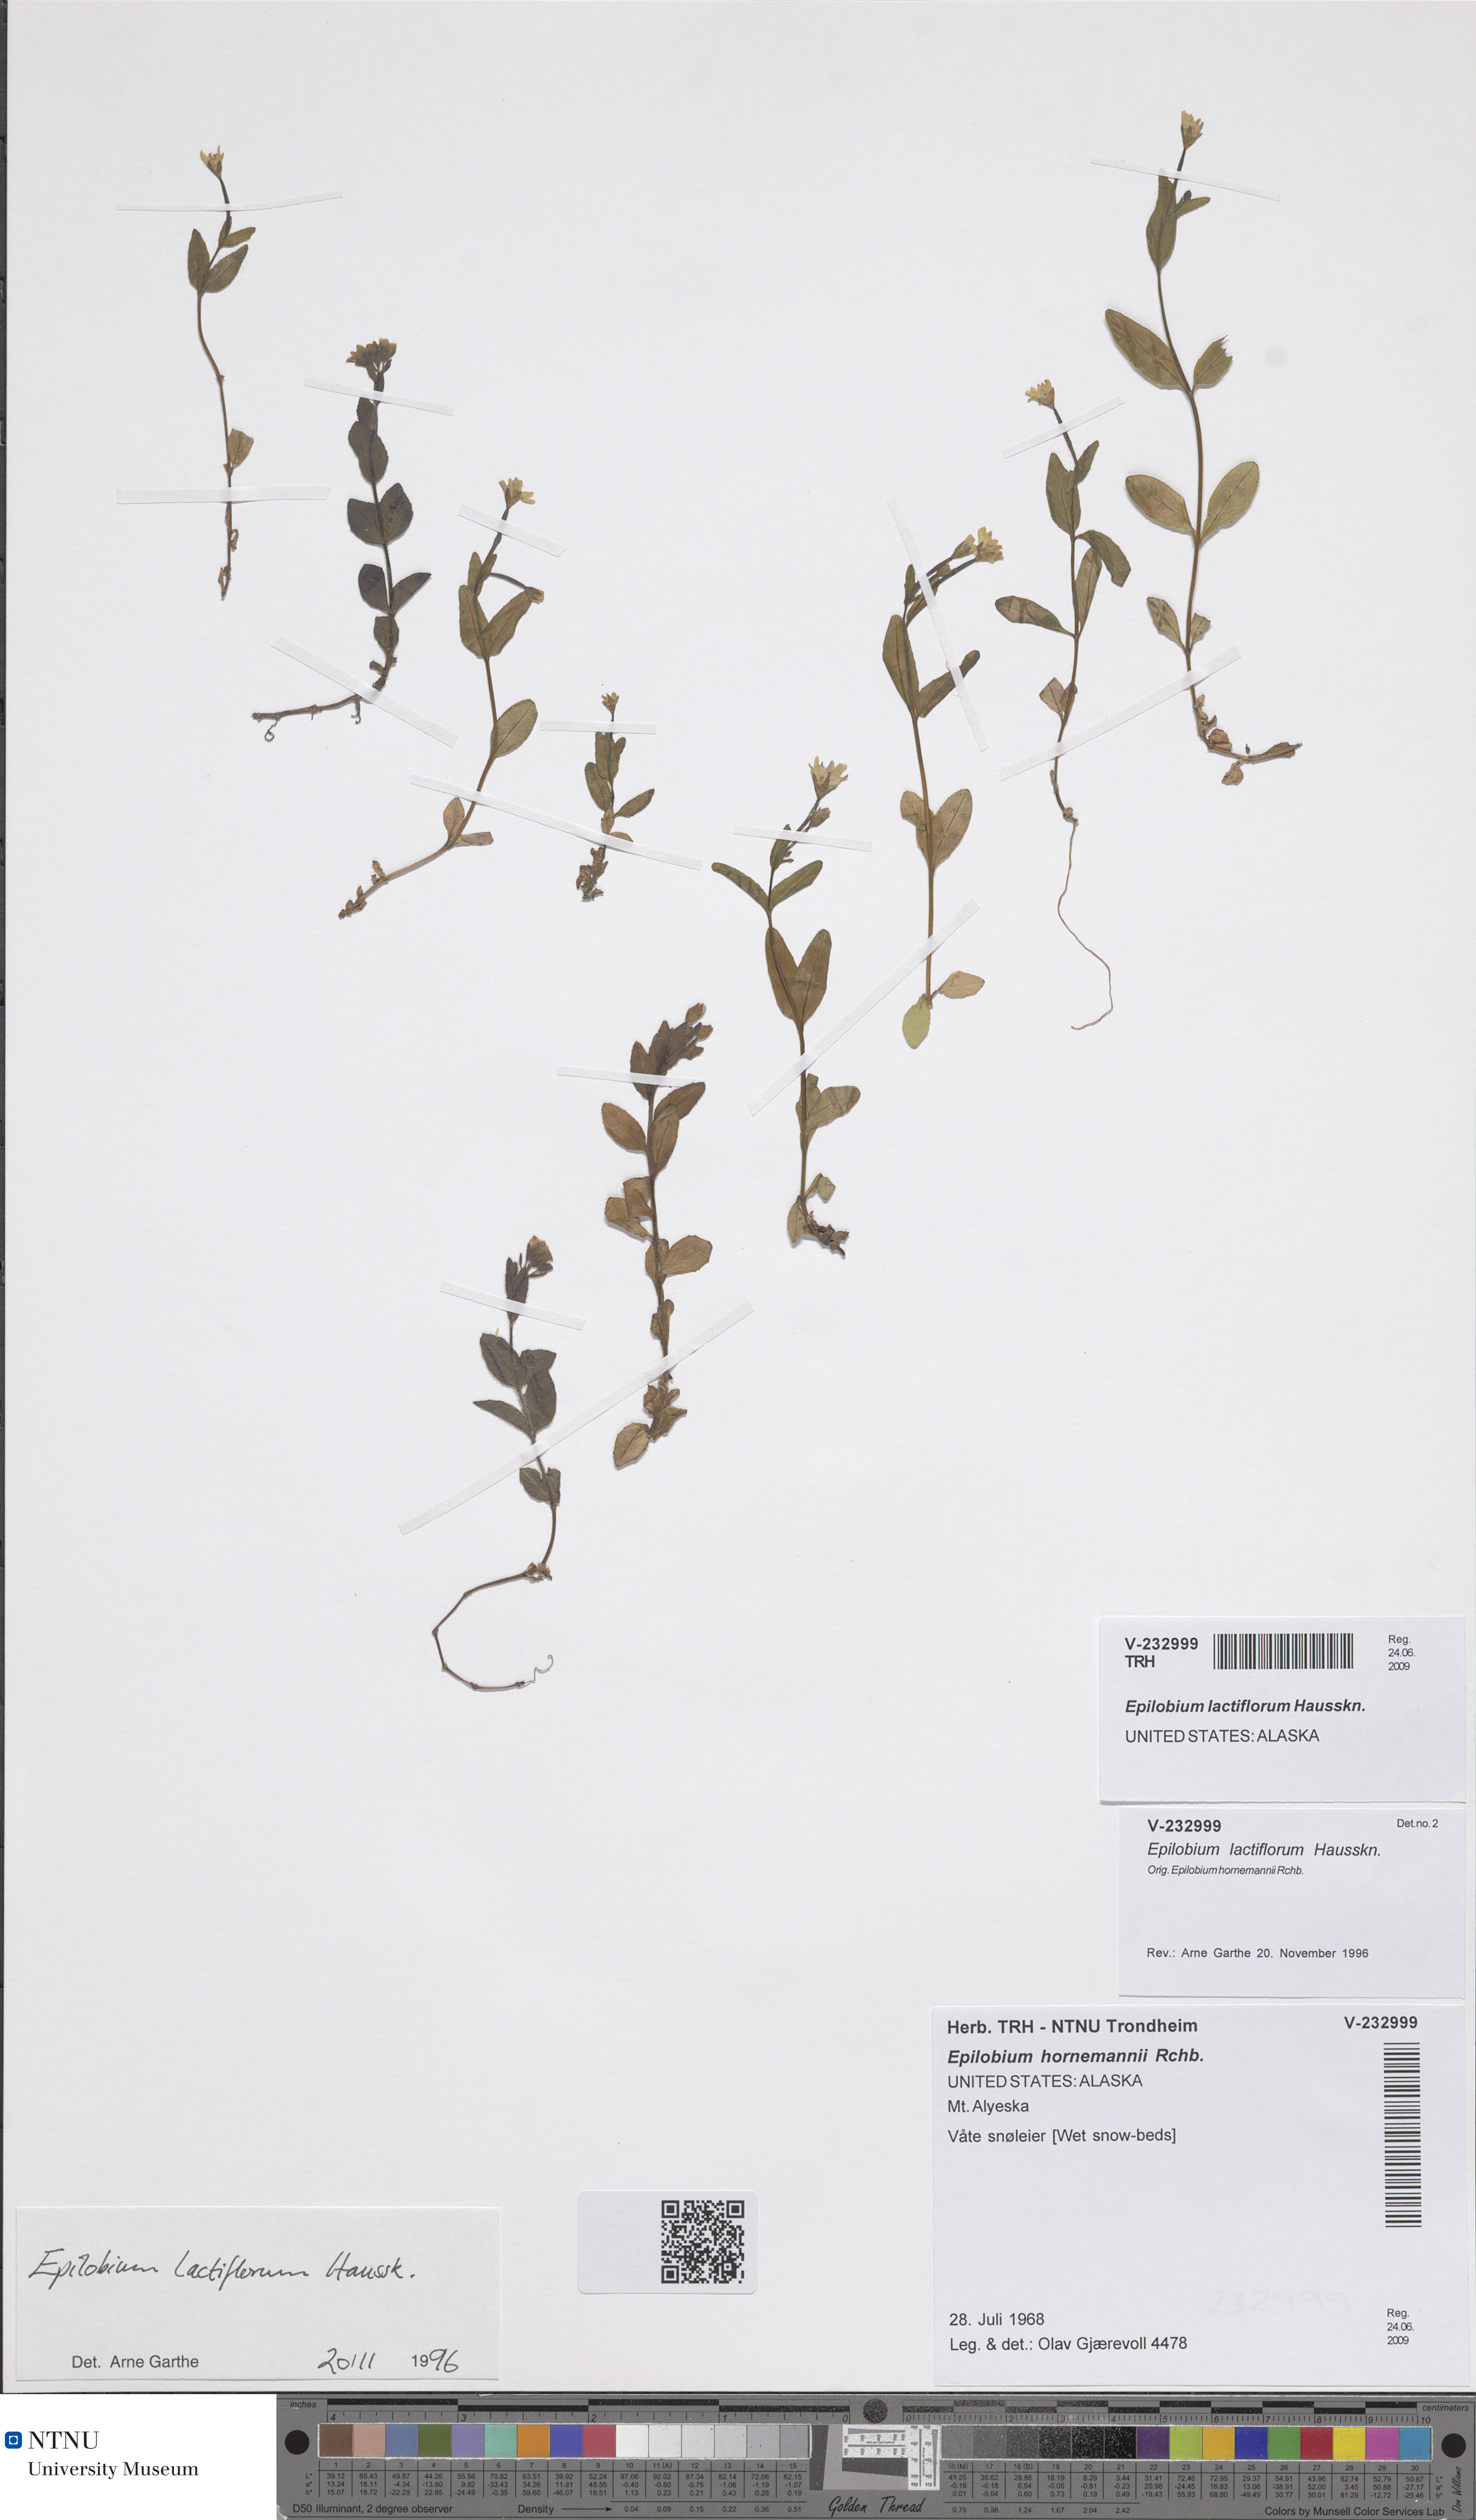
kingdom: Plantae
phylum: Tracheophyta
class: Magnoliopsida
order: Myrtales
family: Onagraceae
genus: Epilobium
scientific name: Epilobium lactiflorum
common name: Milkflower willowherb
